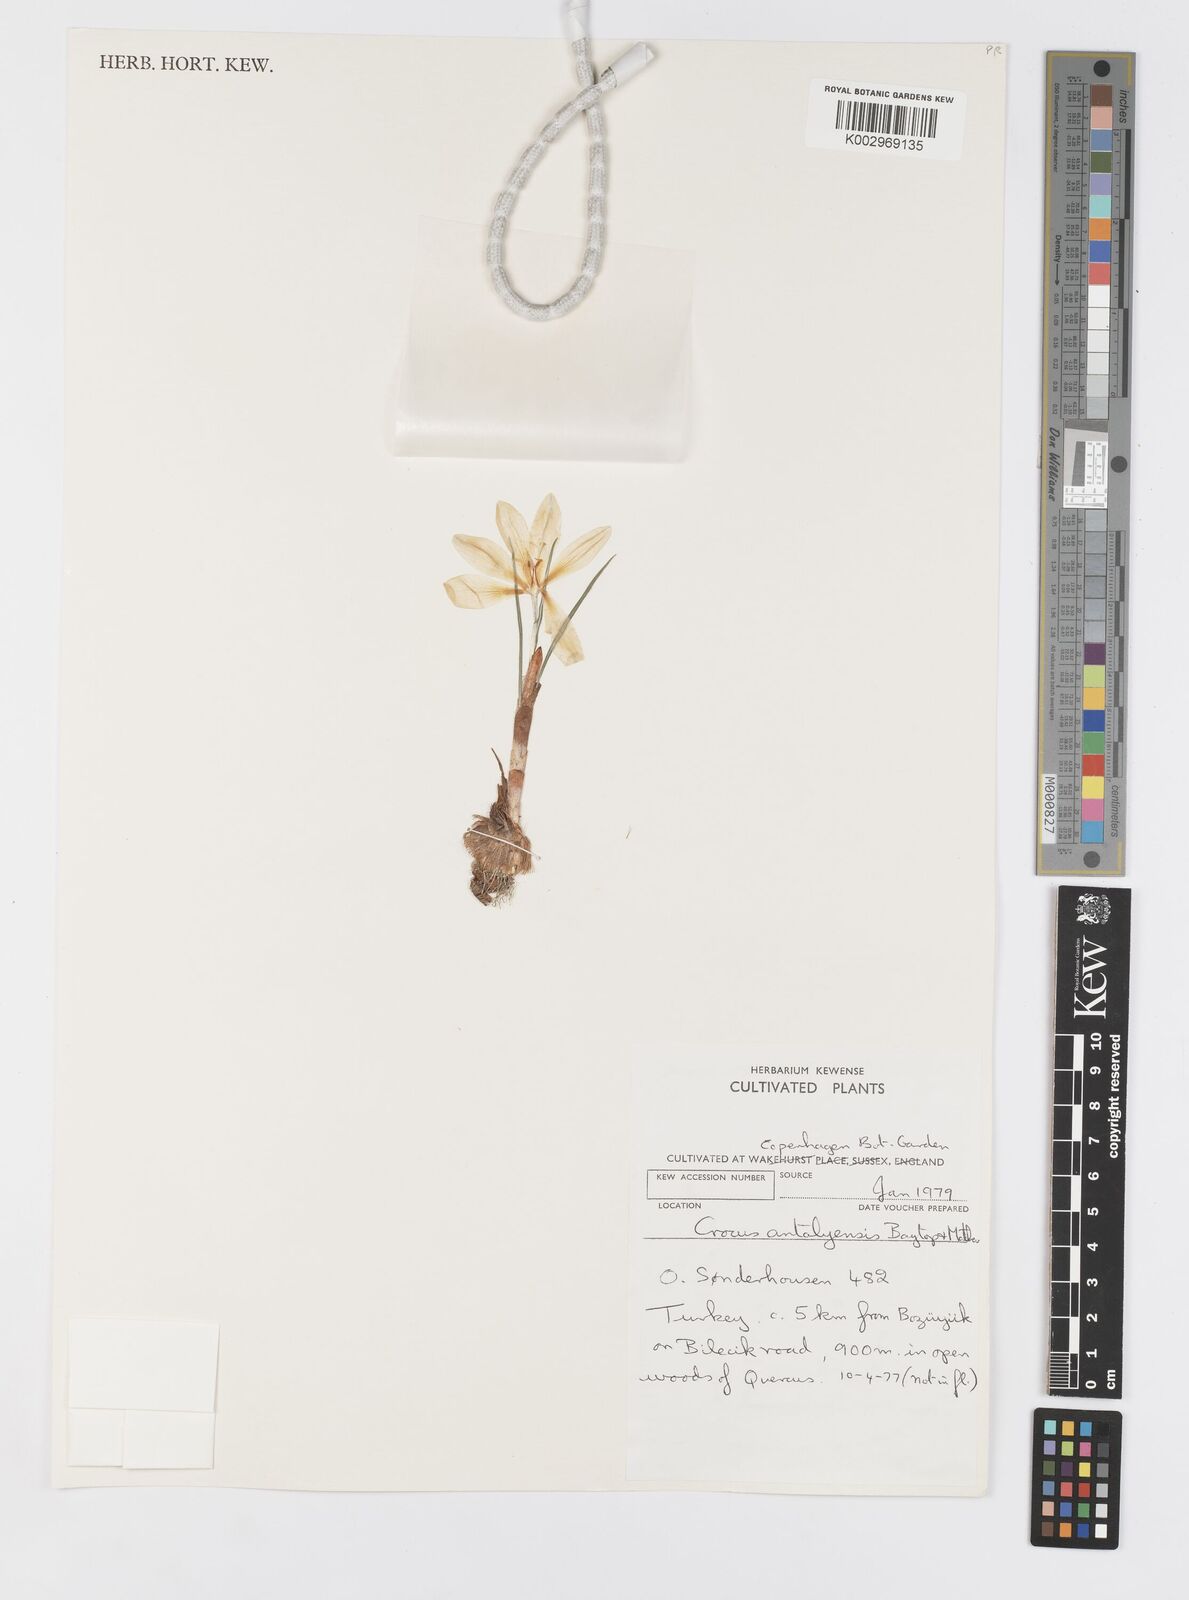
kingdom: Plantae
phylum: Tracheophyta
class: Liliopsida
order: Asparagales
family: Iridaceae
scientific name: Iridaceae
